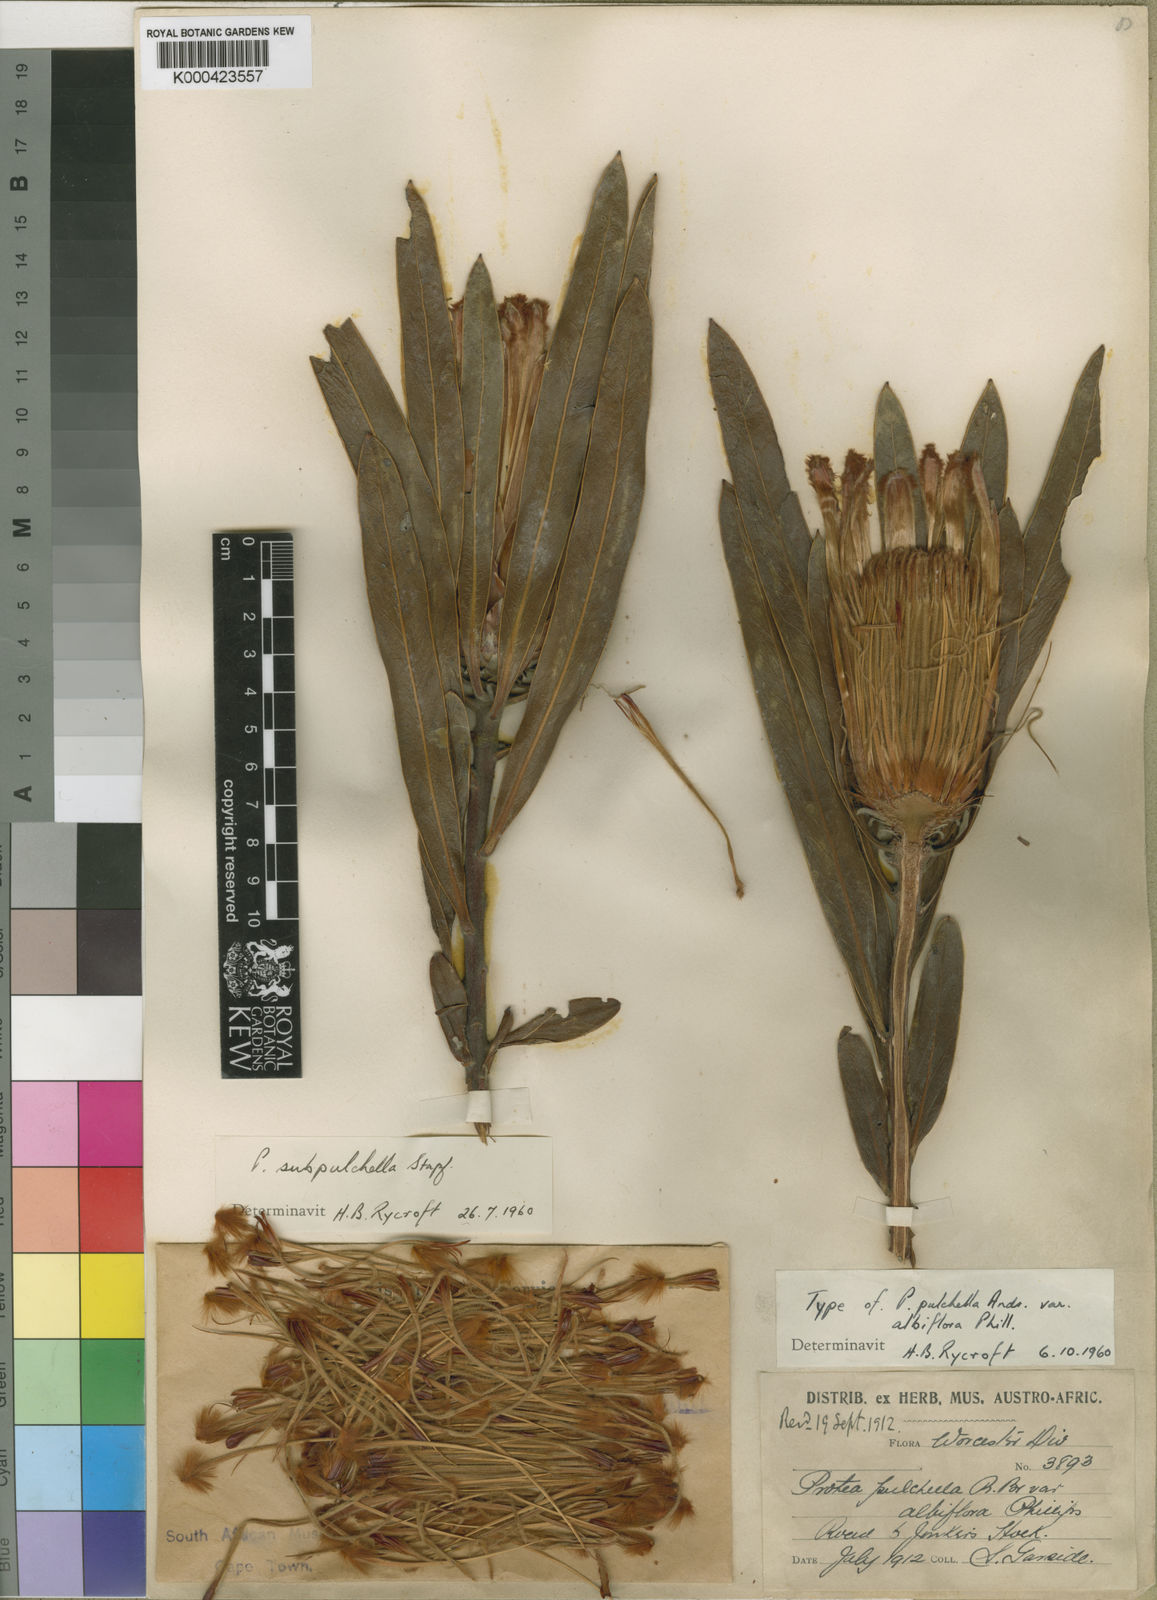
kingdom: Plantae
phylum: Tracheophyta
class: Magnoliopsida
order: Proteales
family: Proteaceae
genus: Protea
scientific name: Protea burchellii
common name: Burchell's sugarbush
